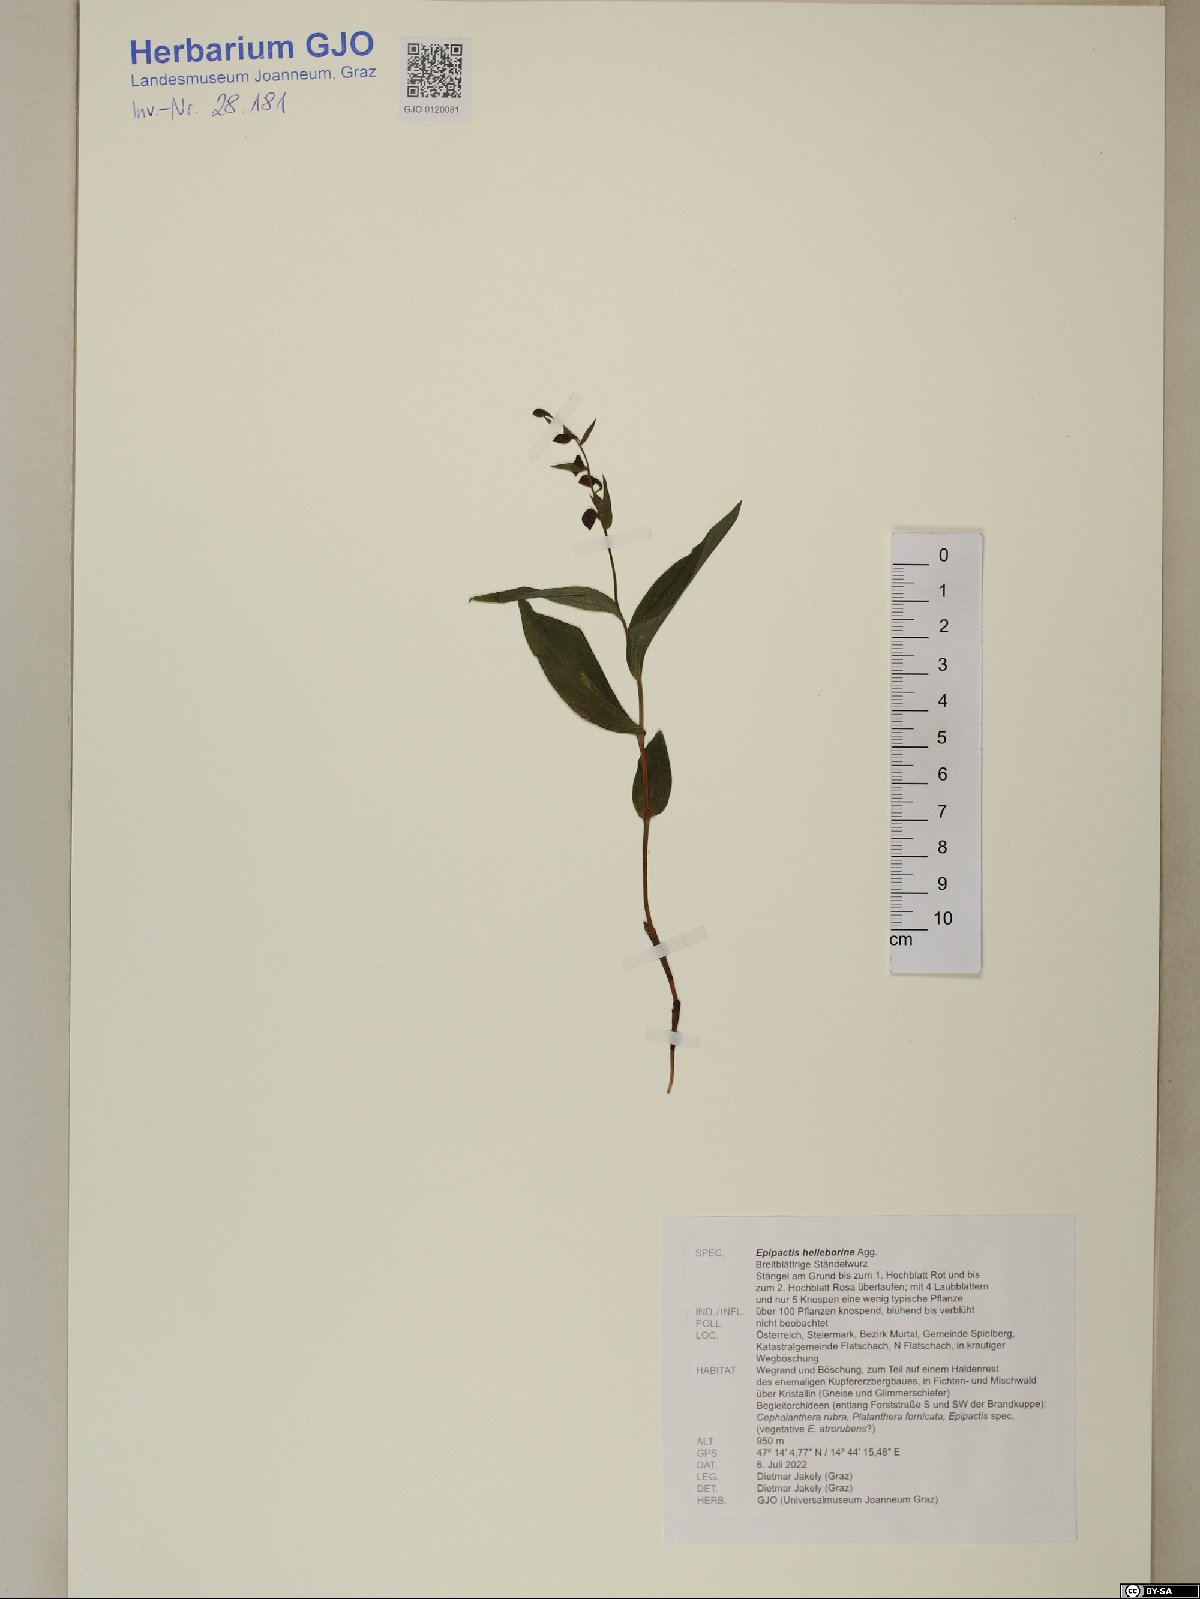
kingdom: Plantae
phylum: Tracheophyta
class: Liliopsida
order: Asparagales
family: Orchidaceae
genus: Epipactis
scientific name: Epipactis helleborine
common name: Broad-leaved helleborine
